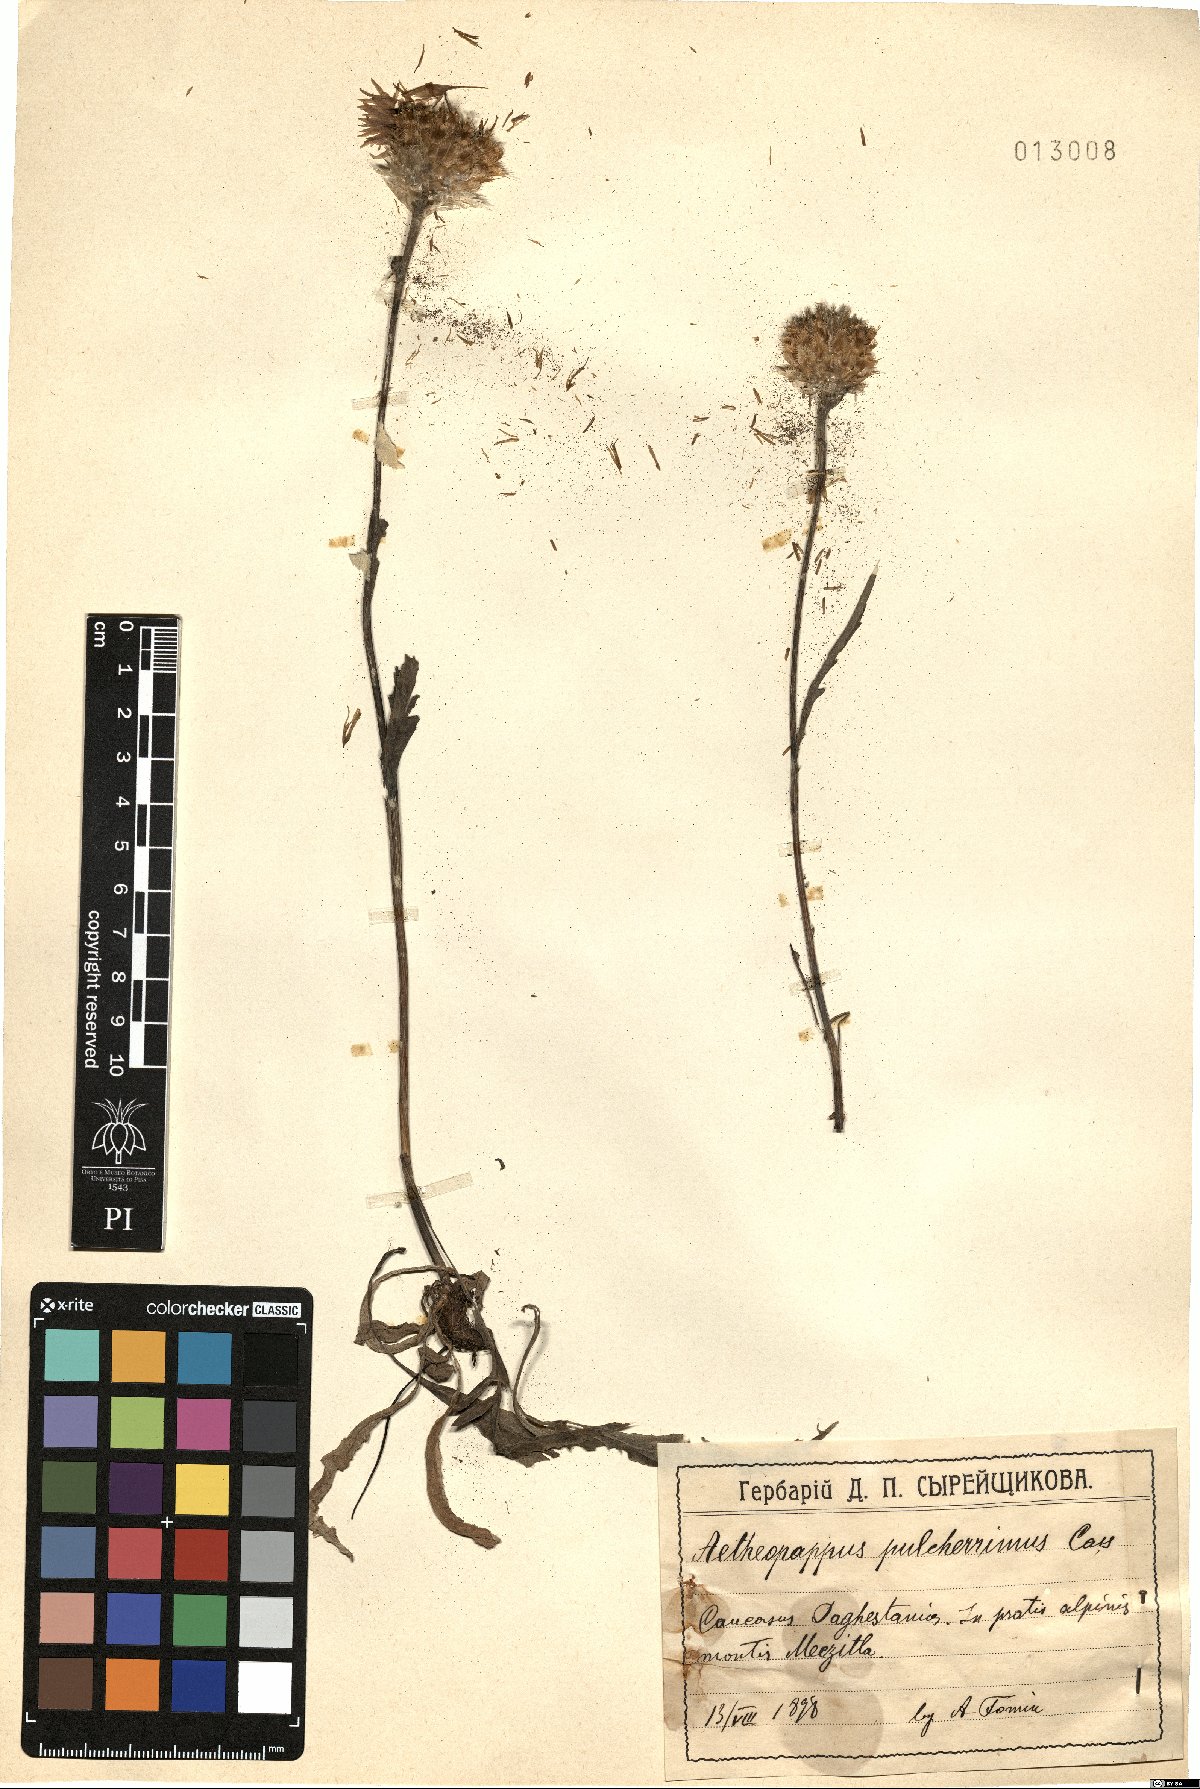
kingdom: Plantae
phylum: Tracheophyta
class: Magnoliopsida
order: Asterales
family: Asteraceae
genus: Psephellus
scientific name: Psephellus pulcherrimus
